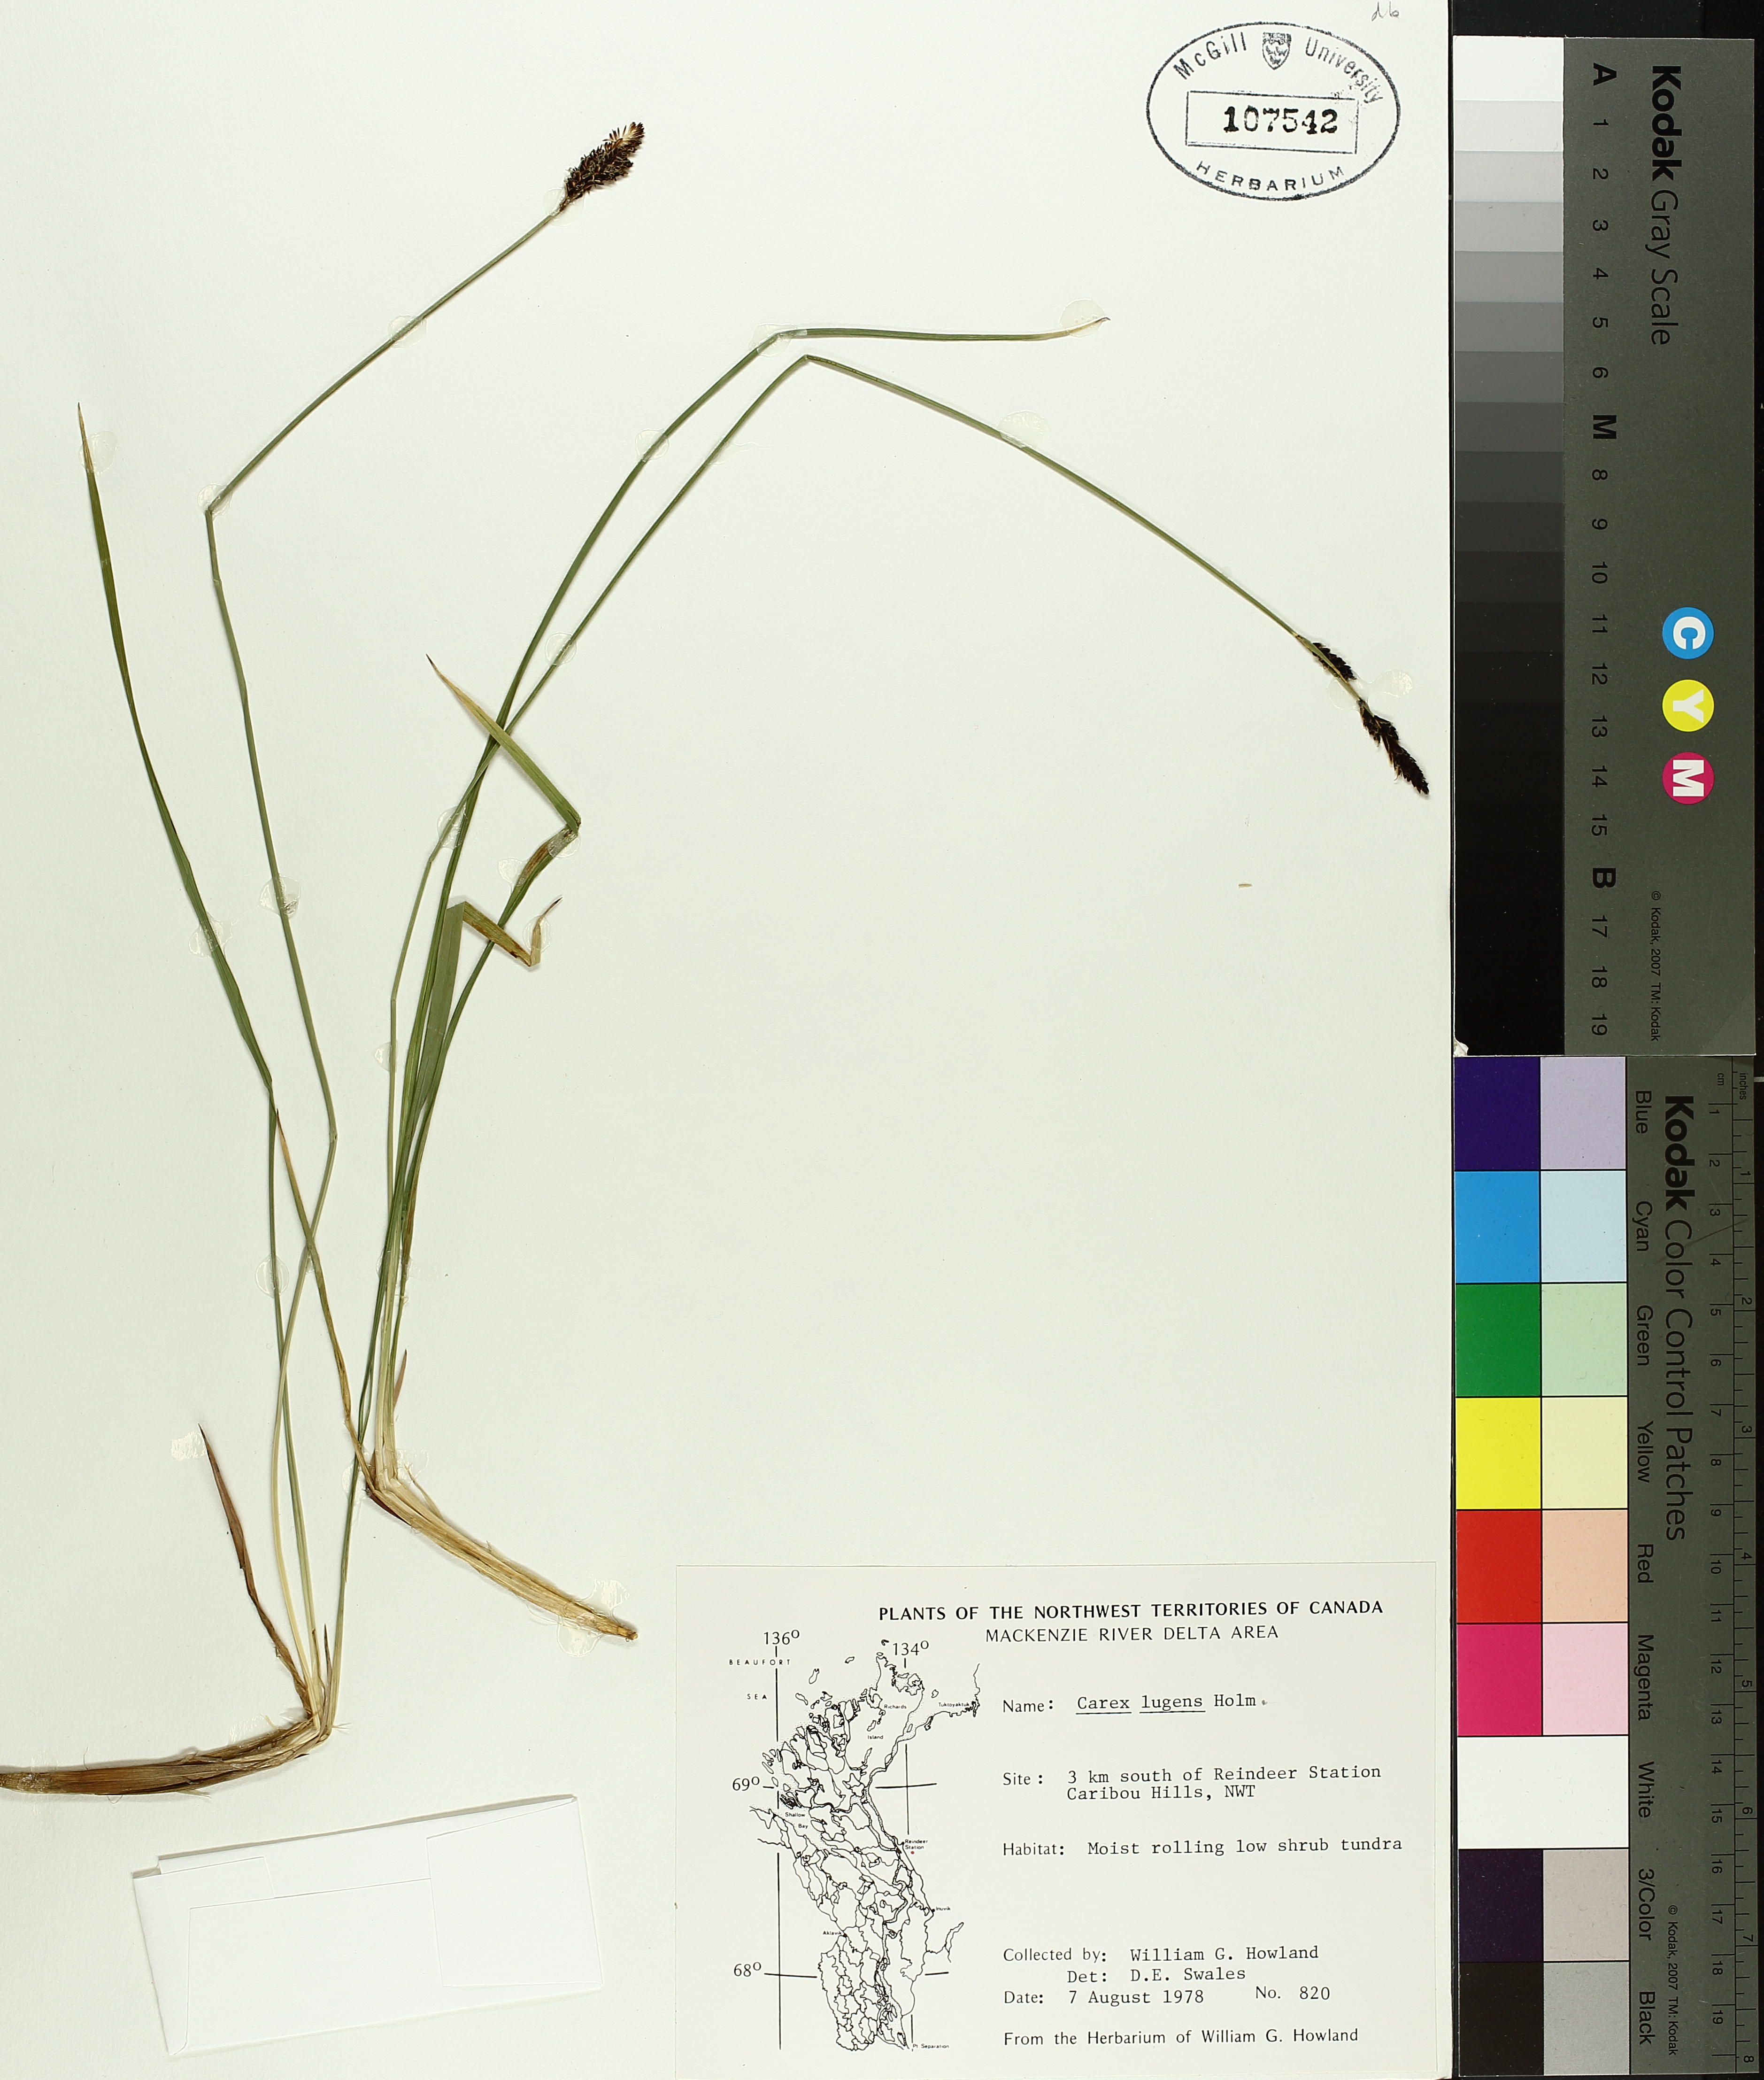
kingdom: Plantae
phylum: Tracheophyta
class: Liliopsida
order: Poales
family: Cyperaceae
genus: Carex
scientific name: Carex bigelowii
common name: Stiff sedge
